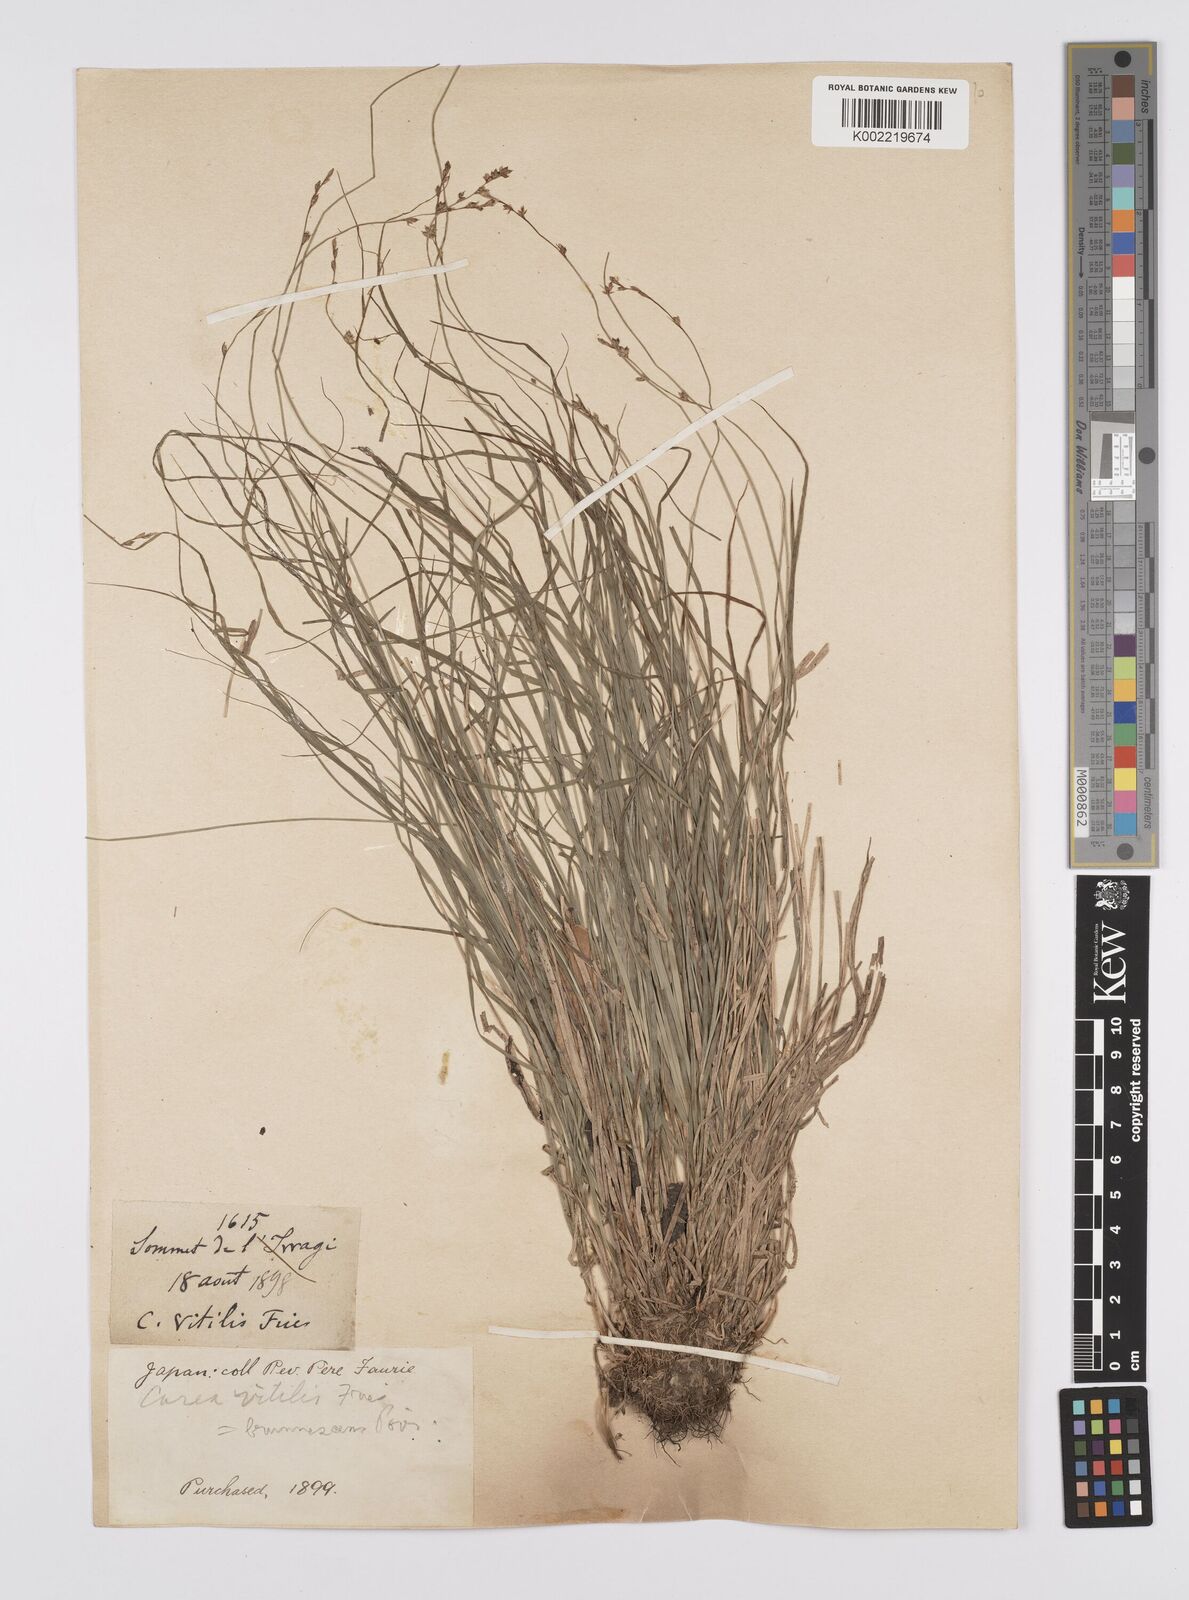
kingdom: Plantae
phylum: Tracheophyta
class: Liliopsida
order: Poales
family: Cyperaceae
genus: Carex
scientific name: Carex brunnescens
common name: Brown sedge
